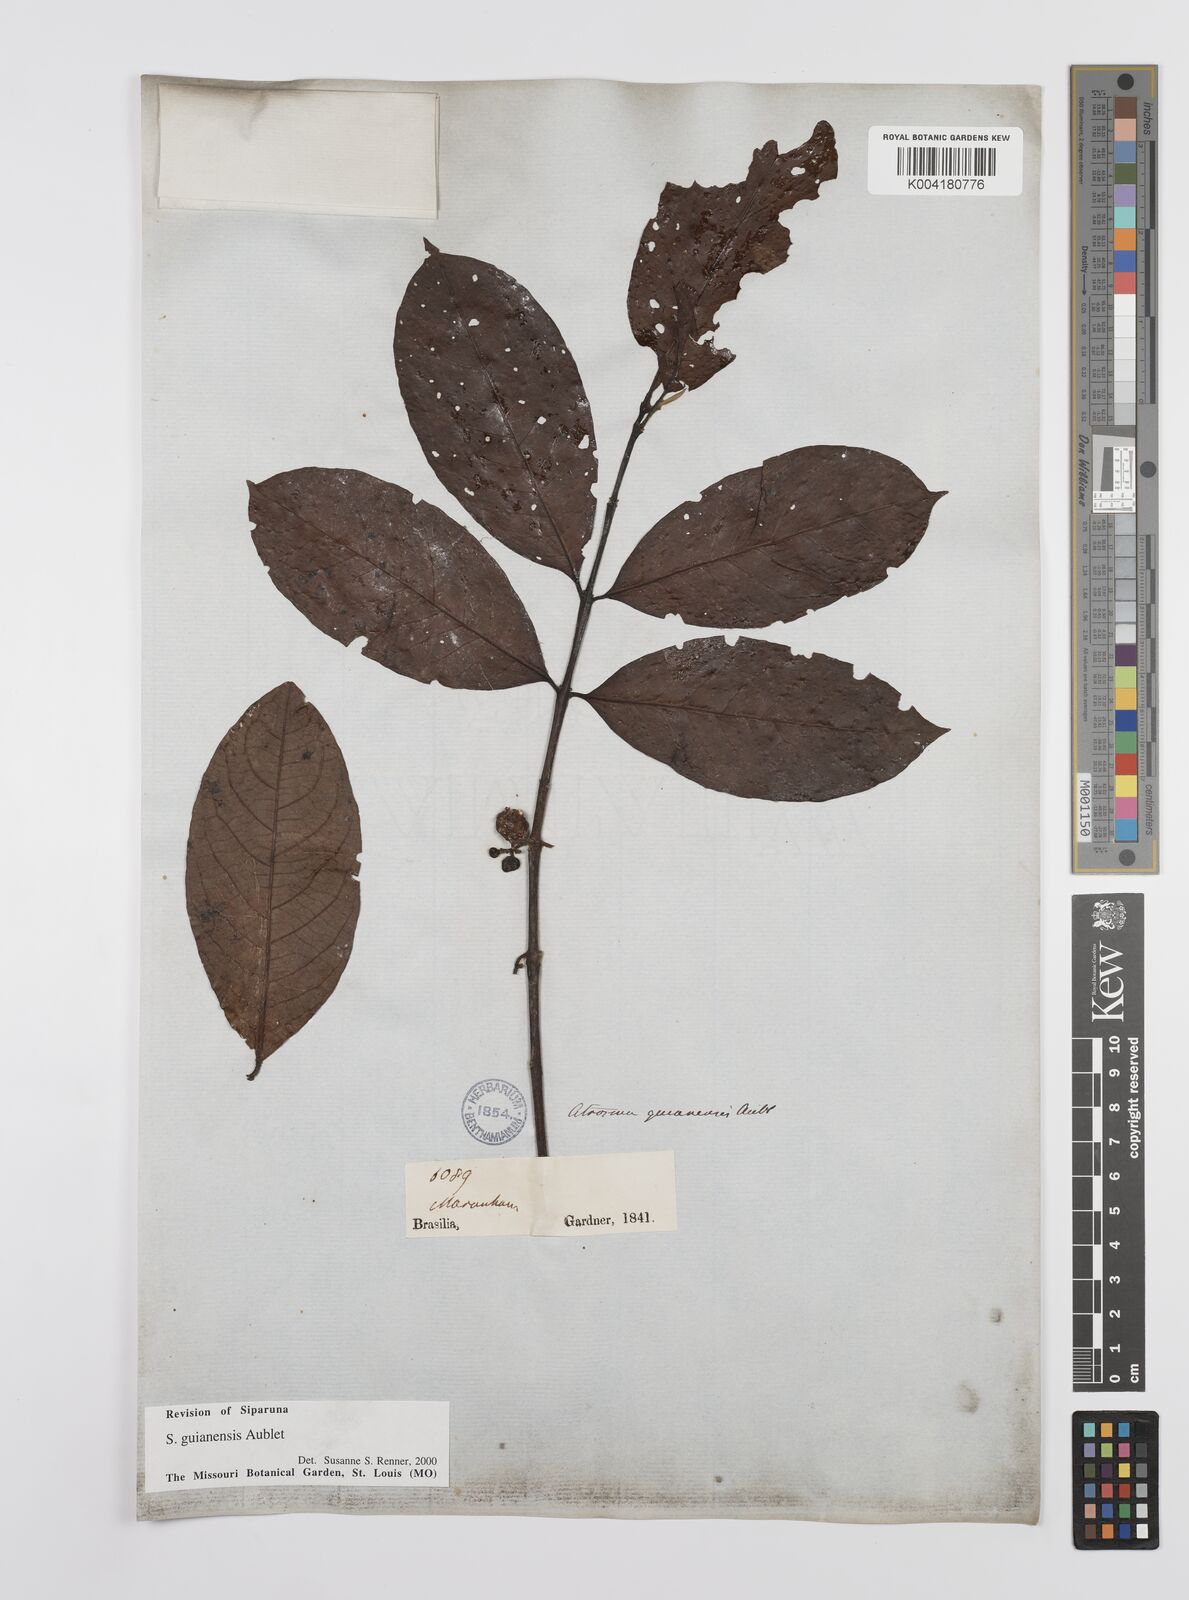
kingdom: Plantae
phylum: Tracheophyta
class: Magnoliopsida
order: Laurales
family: Siparunaceae
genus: Siparuna
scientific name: Siparuna guianensis
